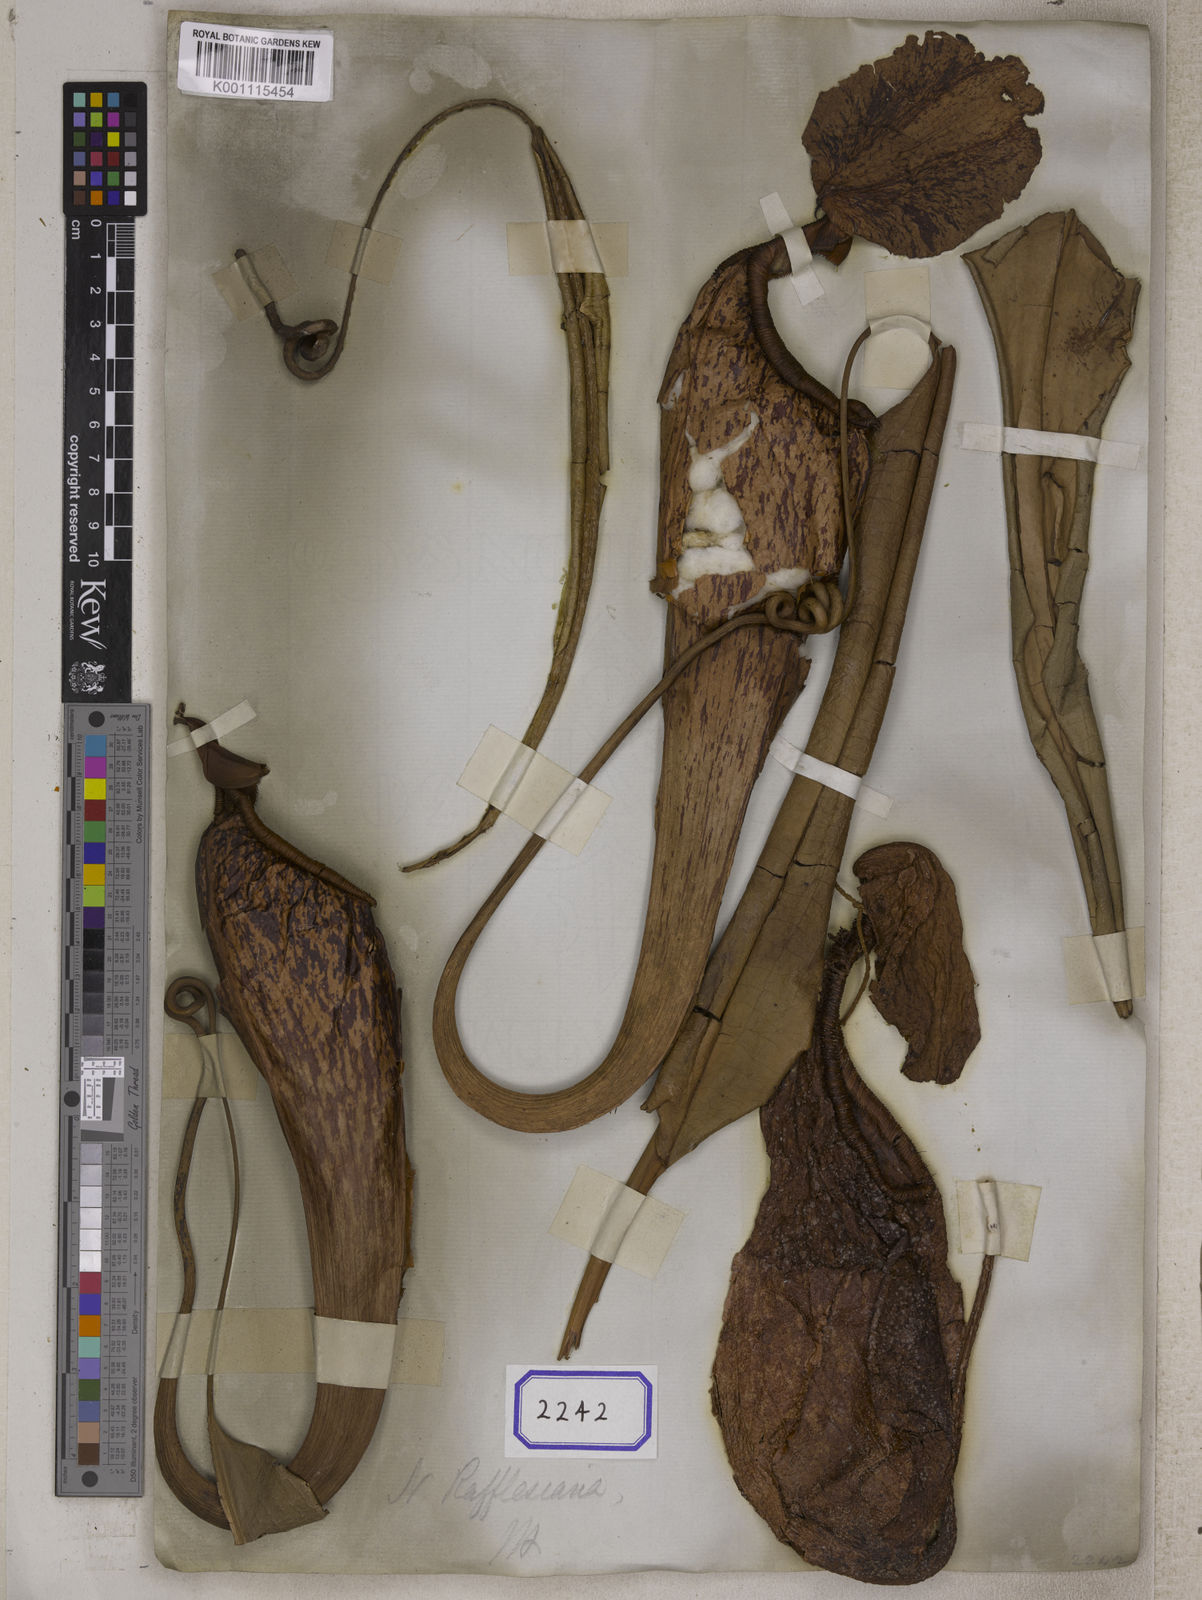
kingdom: Plantae
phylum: Tracheophyta
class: Magnoliopsida
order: Caryophyllales
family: Nepenthaceae
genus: Nepenthes
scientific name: Nepenthes rafflesiana
